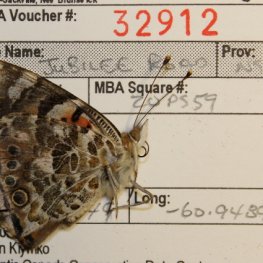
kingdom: Animalia
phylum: Arthropoda
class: Insecta
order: Lepidoptera
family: Nymphalidae
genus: Vanessa
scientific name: Vanessa cardui
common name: Painted Lady
